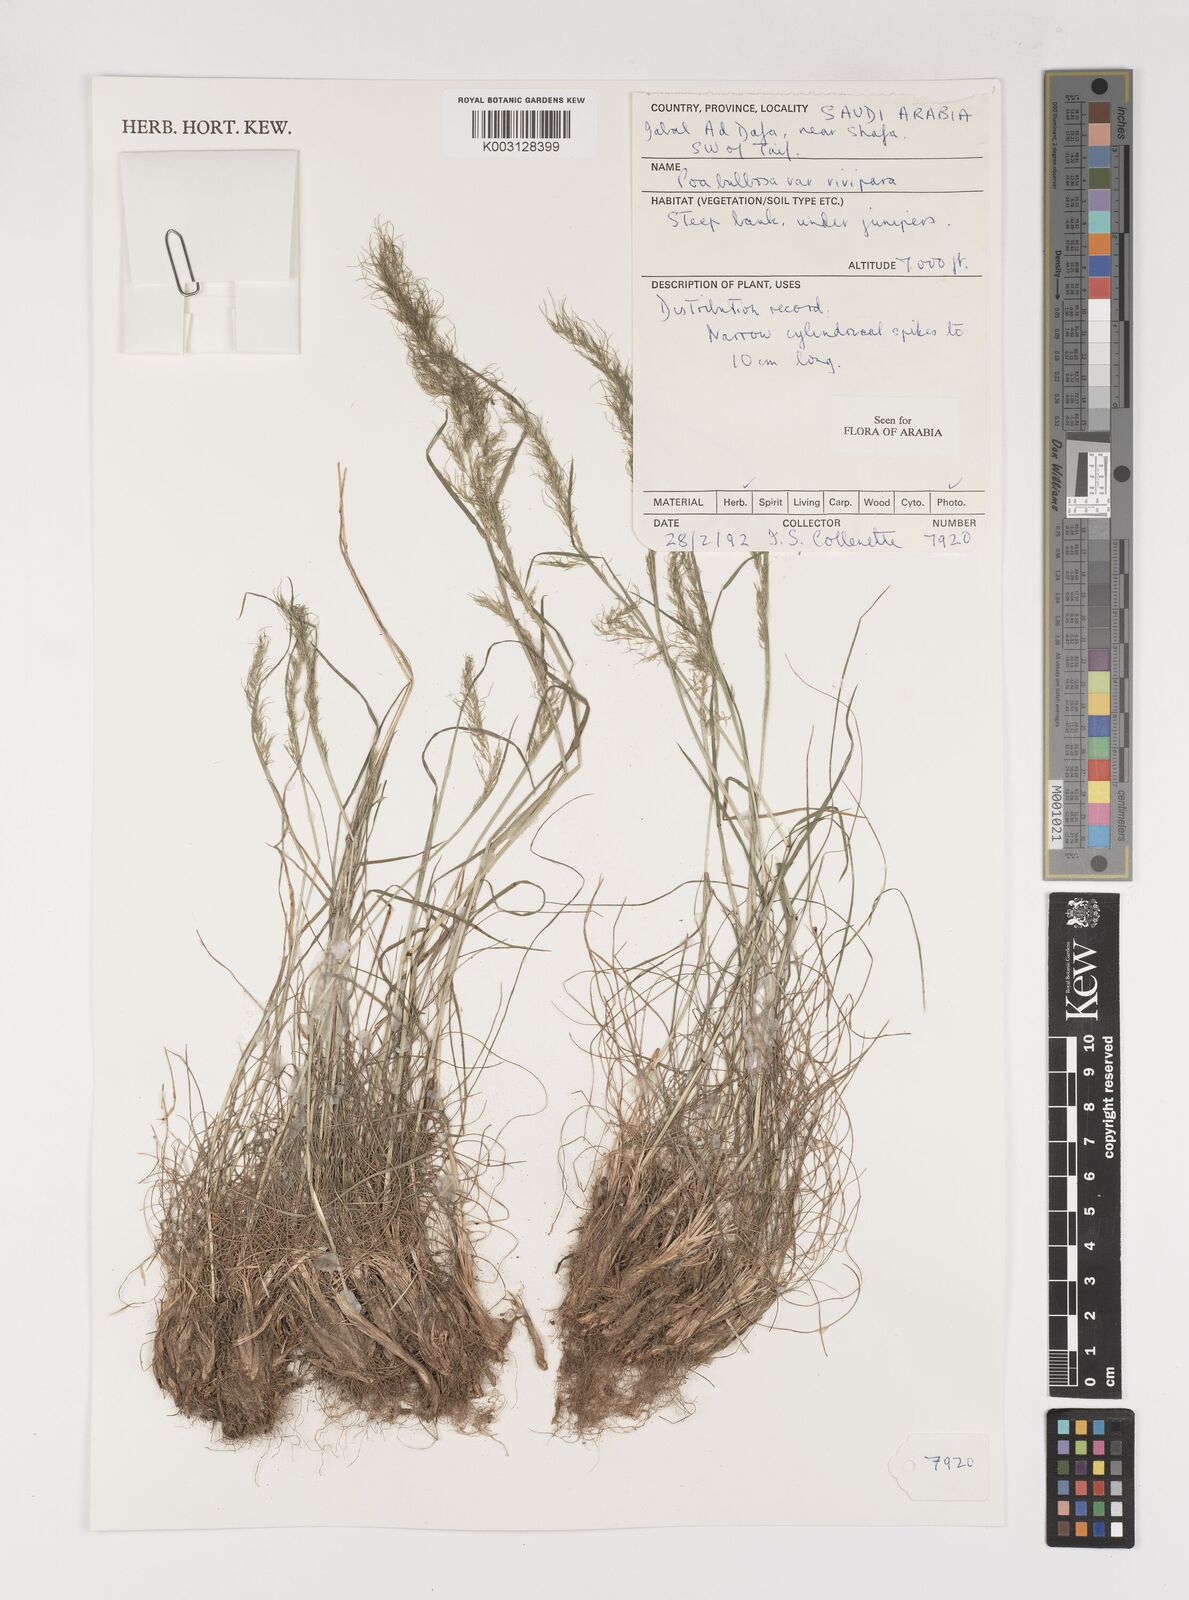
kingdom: Plantae
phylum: Tracheophyta
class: Liliopsida
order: Poales
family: Poaceae
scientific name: Poaceae
